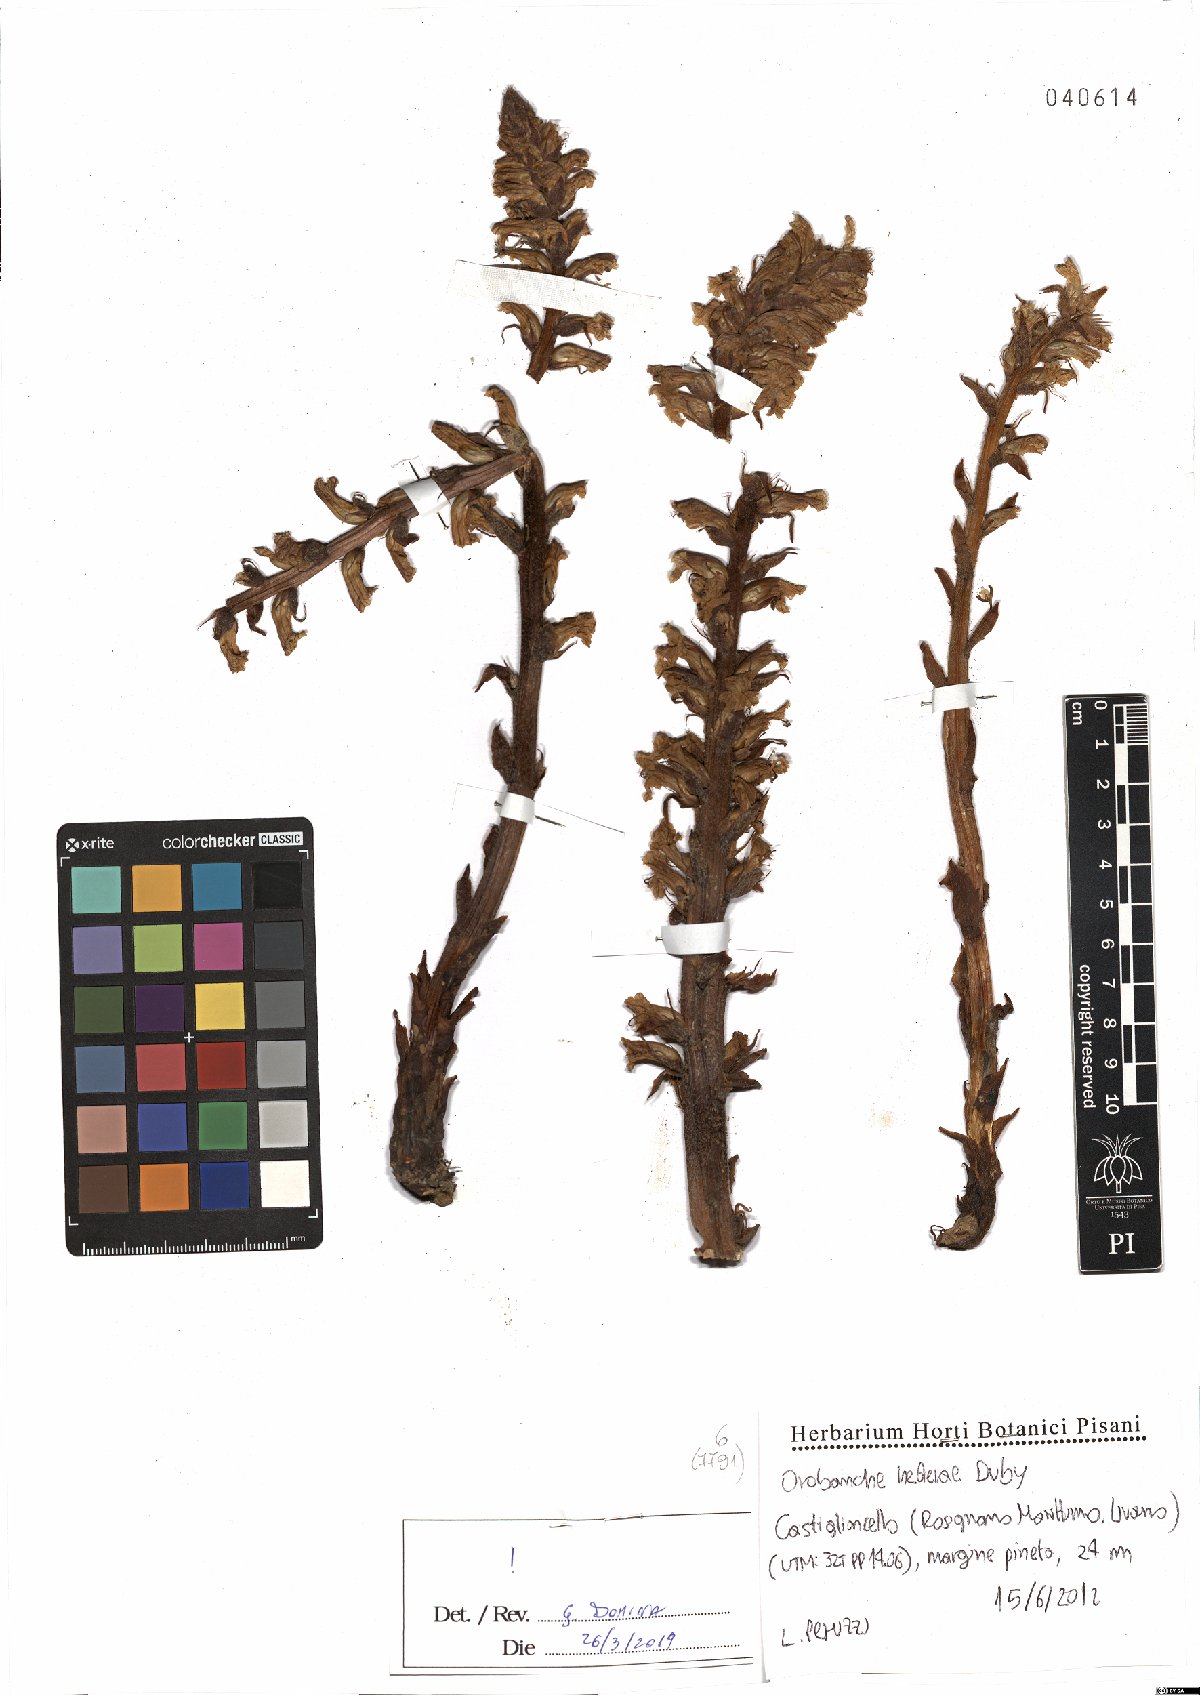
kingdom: Plantae
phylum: Tracheophyta
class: Magnoliopsida
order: Lamiales
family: Orobanchaceae
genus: Orobanche
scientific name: Orobanche hederae
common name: Ivy broomrape
